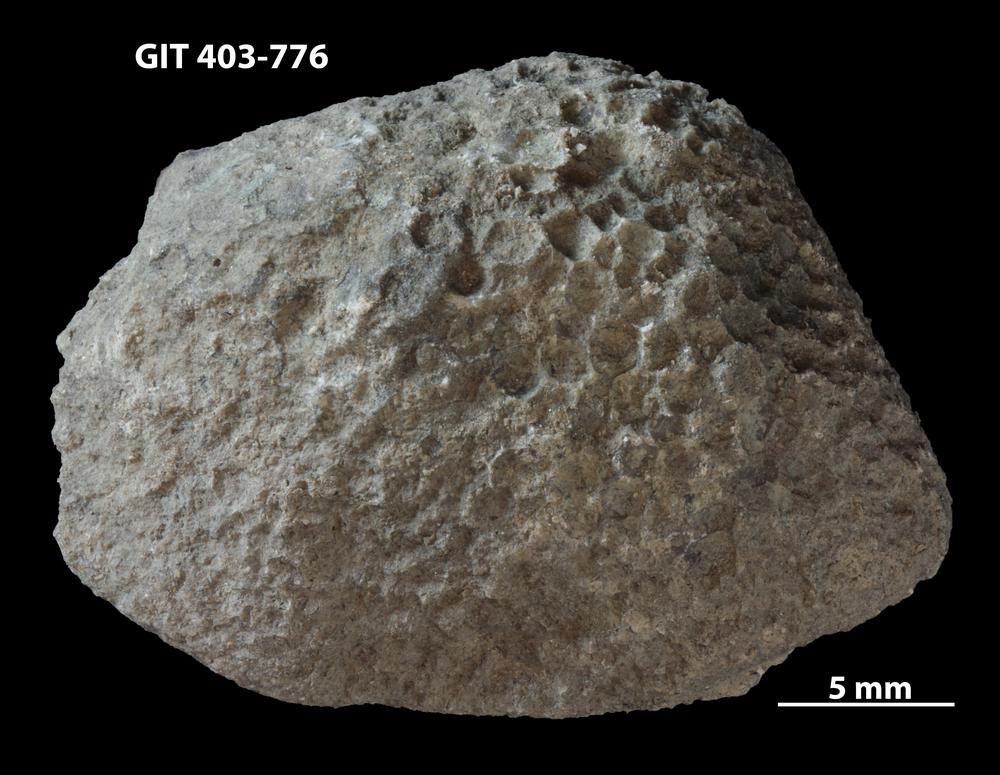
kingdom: Animalia
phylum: Cnidaria
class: Anthozoa
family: Favositidae
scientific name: Favositidae
